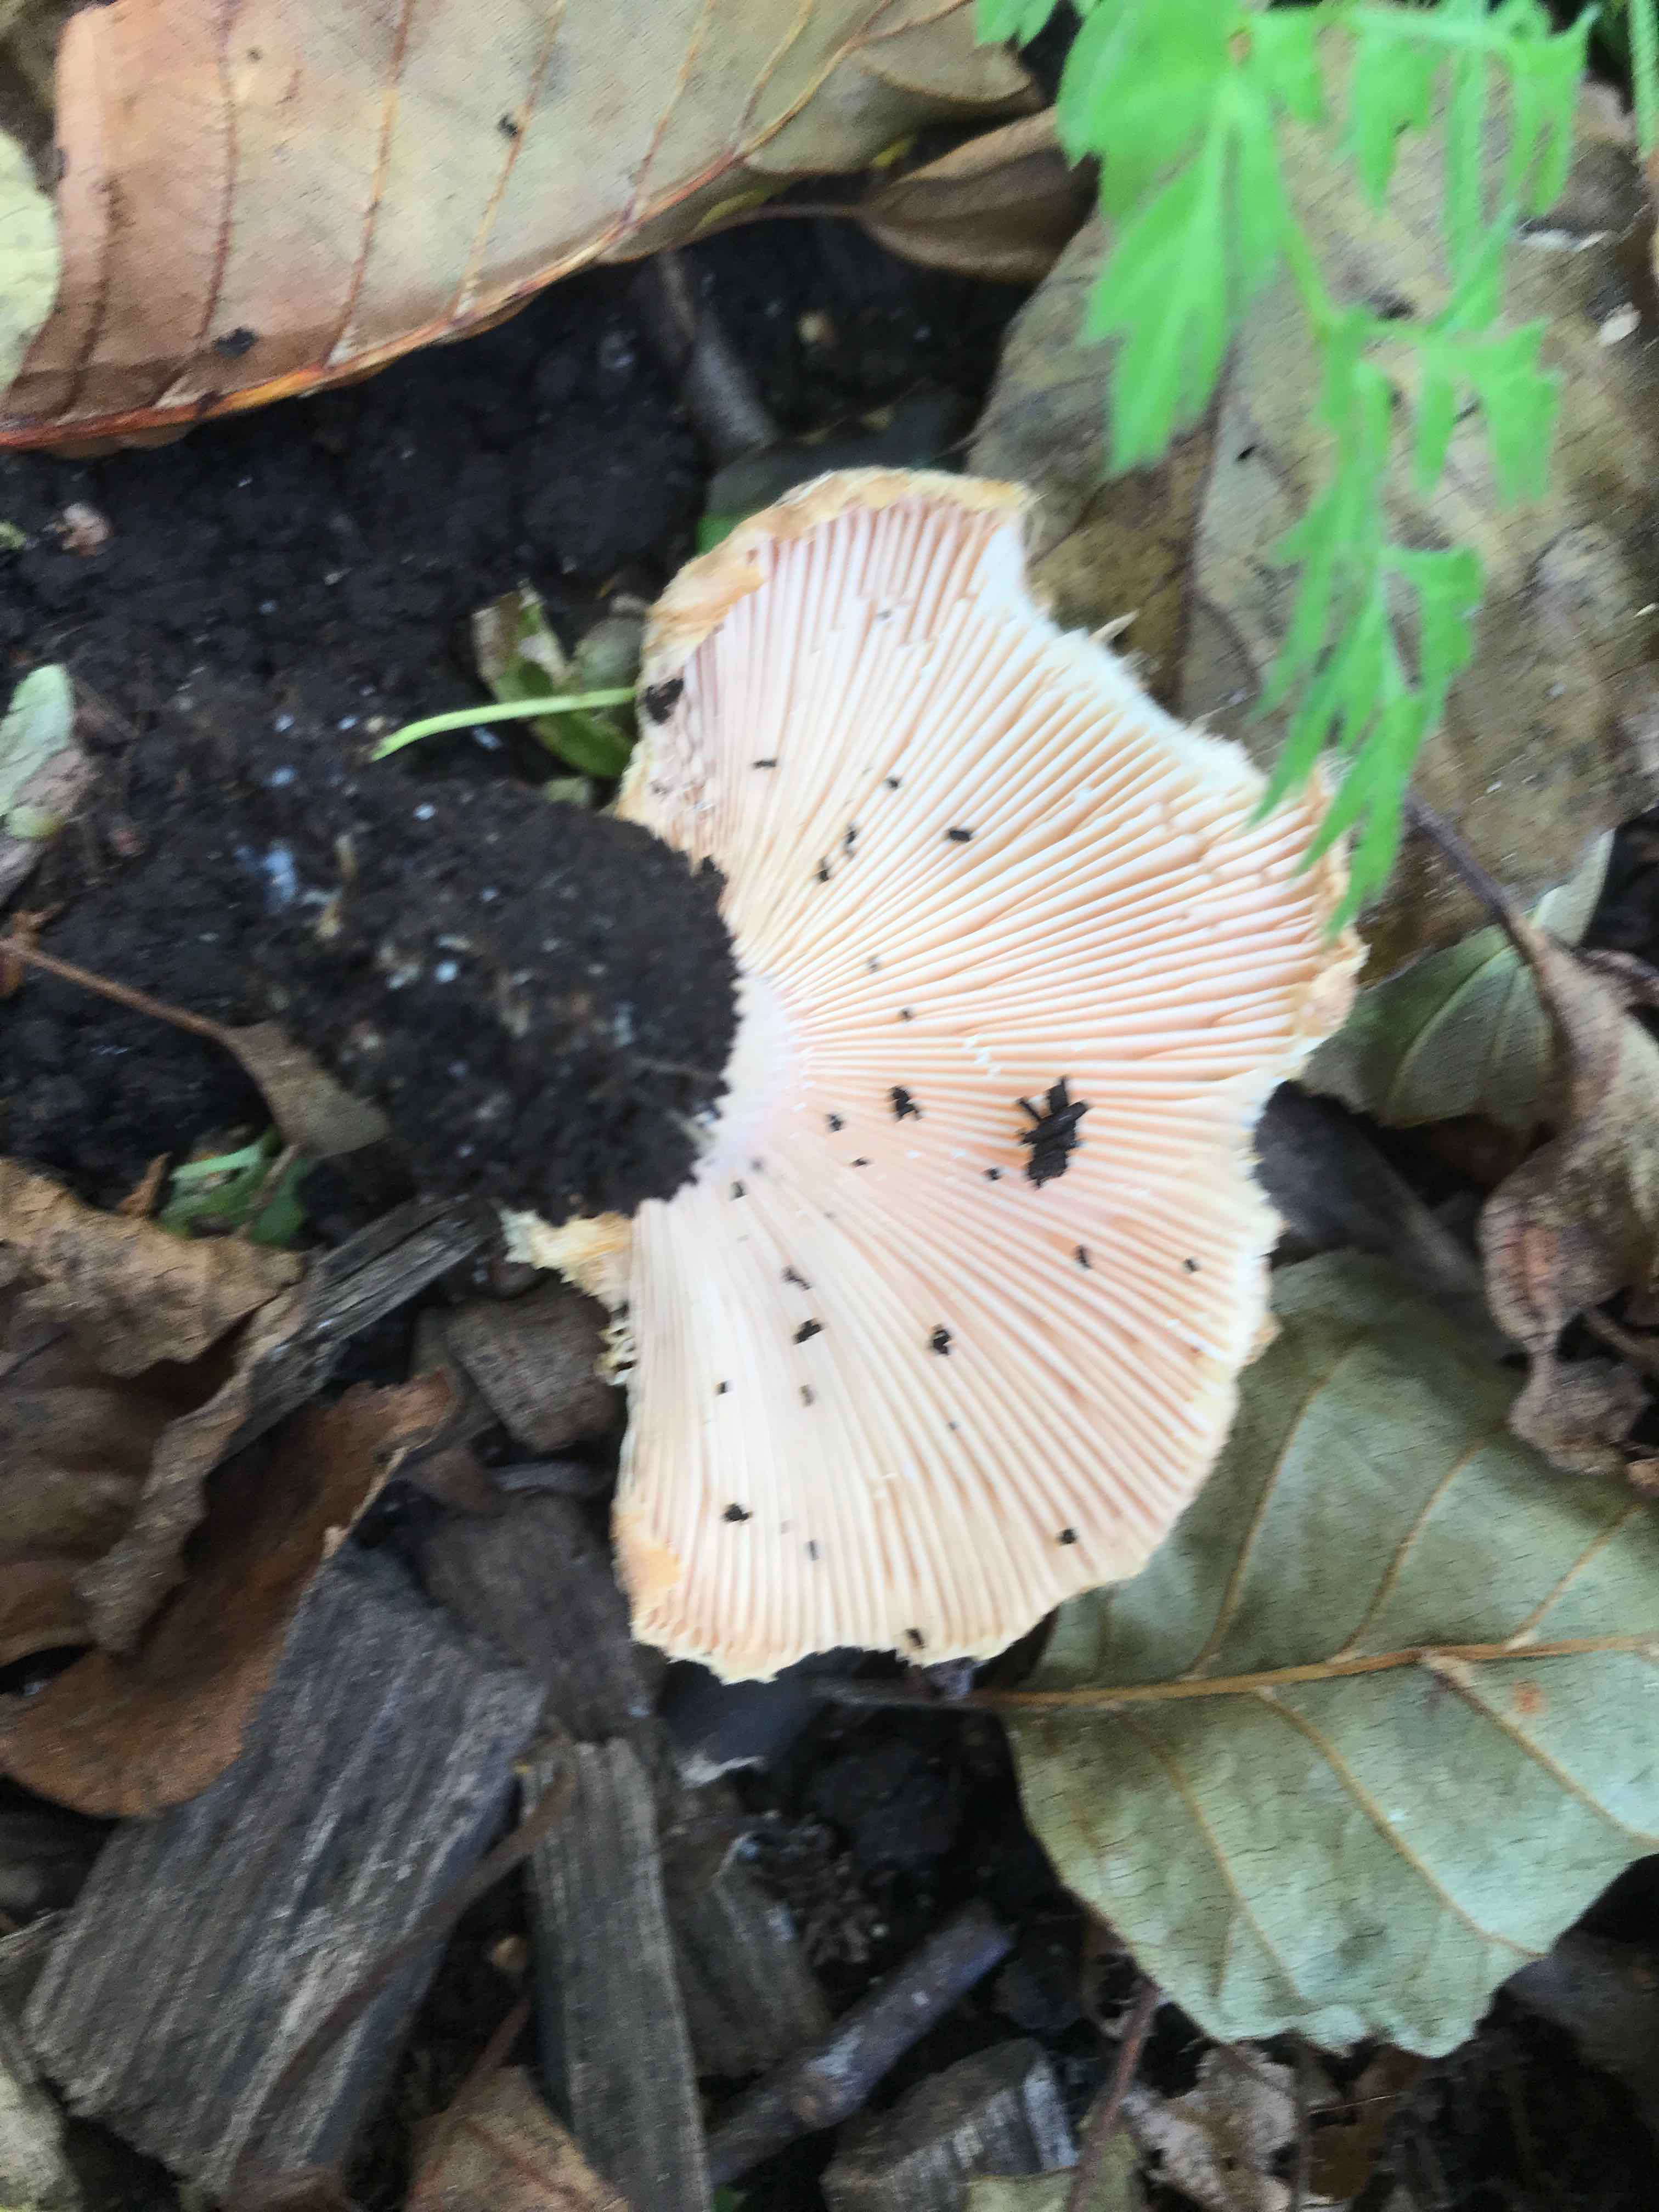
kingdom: Fungi
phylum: Basidiomycota
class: Agaricomycetes
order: Russulales
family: Russulaceae
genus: Lactarius
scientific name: Lactarius scoticus
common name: tørve-mælkehat
